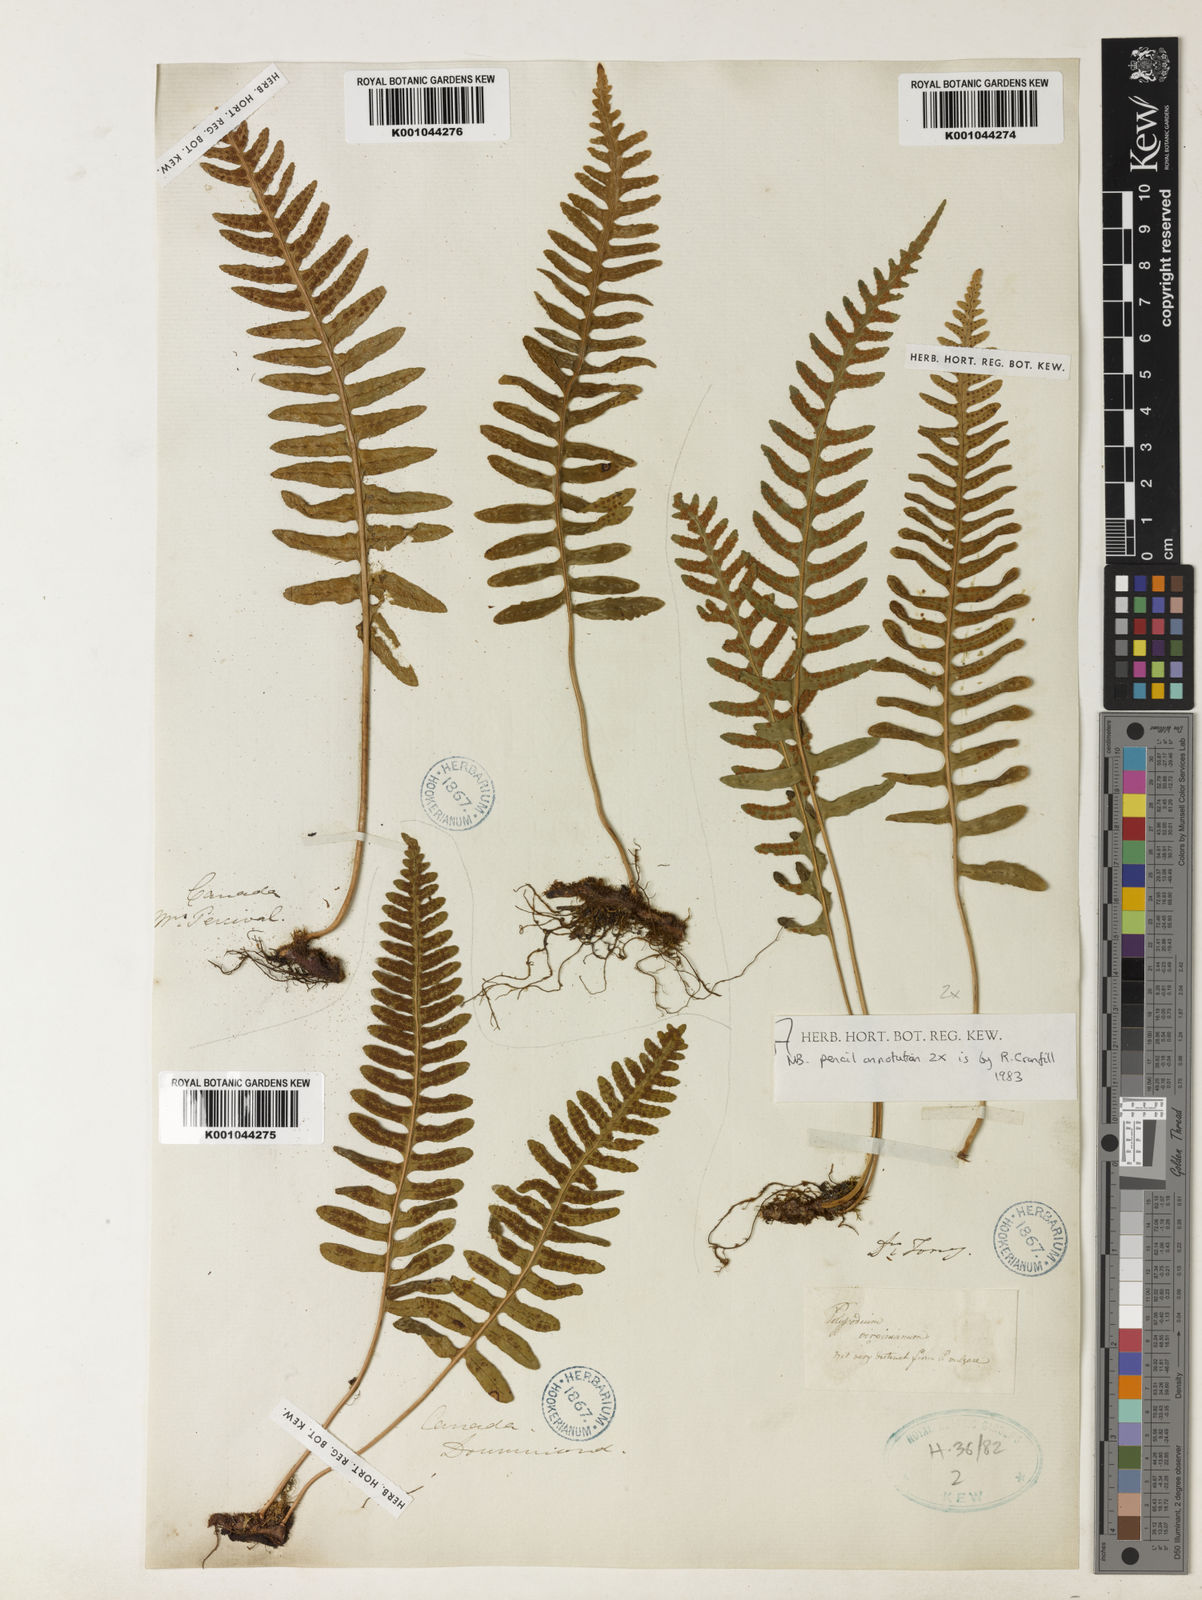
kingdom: Plantae
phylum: Tracheophyta
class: Polypodiopsida
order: Polypodiales
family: Polypodiaceae
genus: Polypodium
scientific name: Polypodium virginianum
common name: American wall fern
